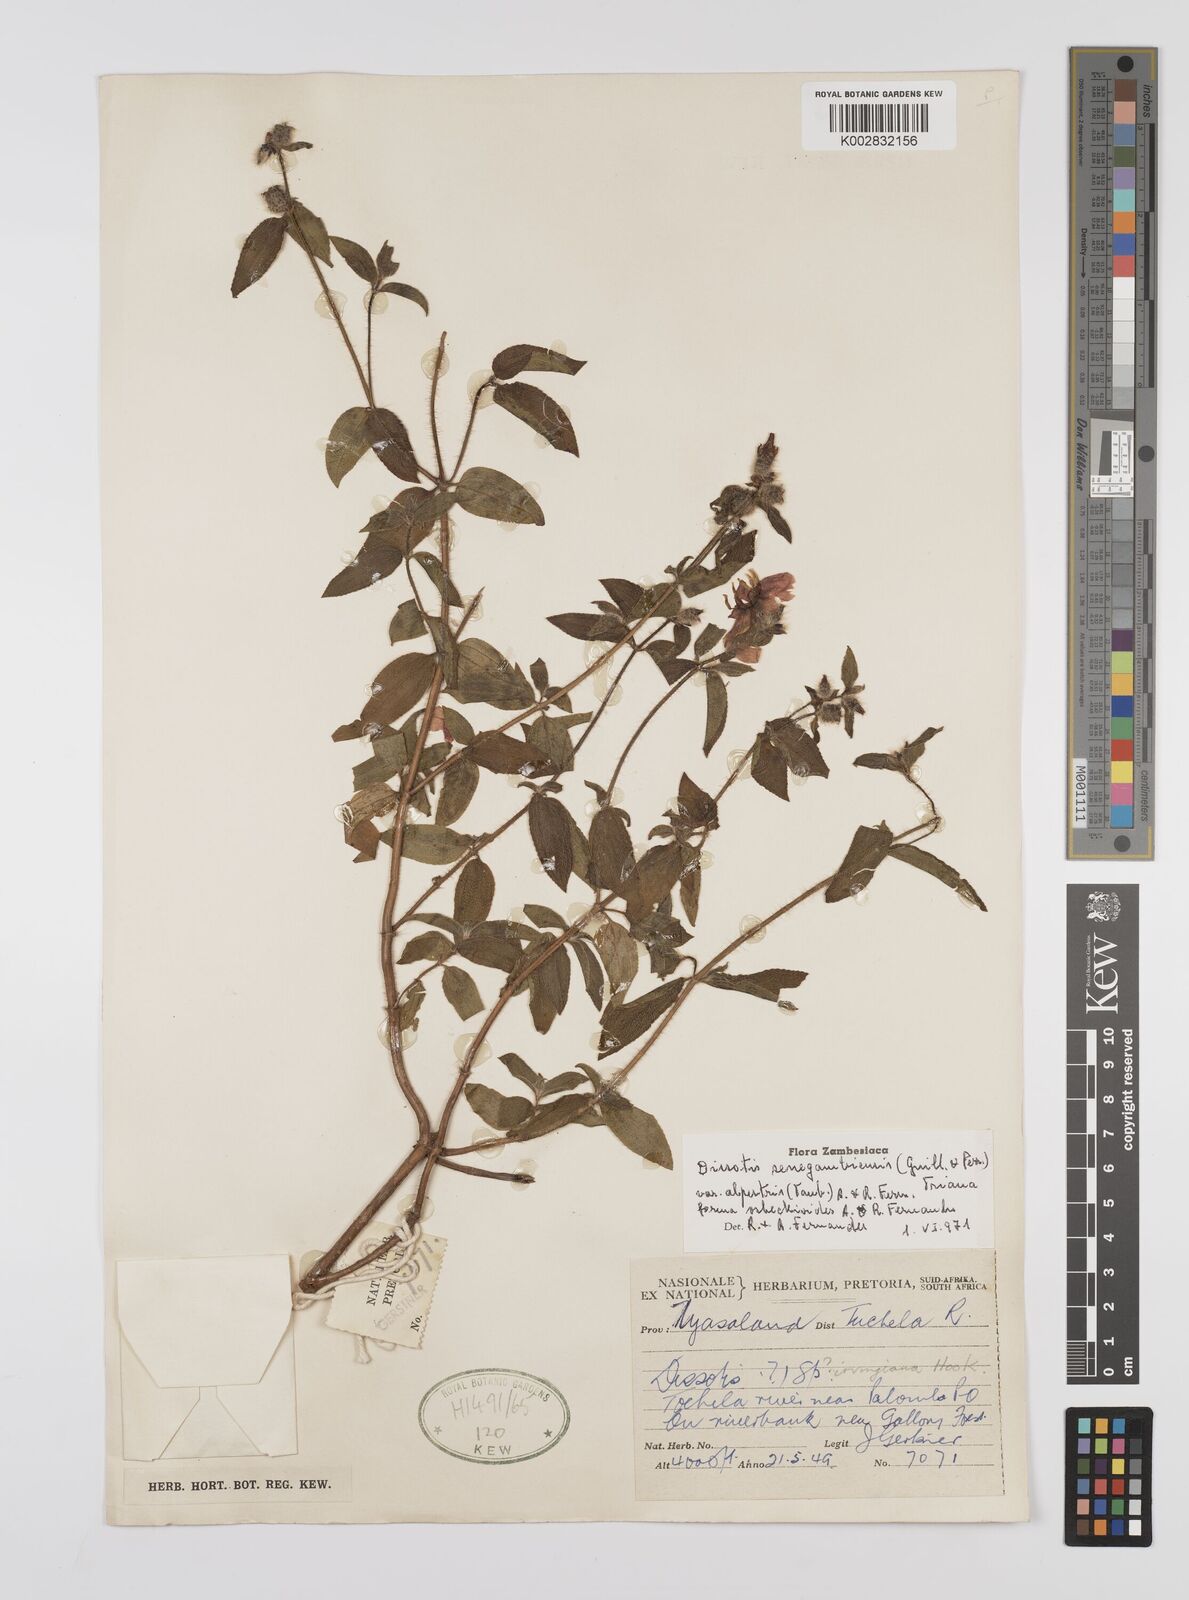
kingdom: Plantae
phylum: Tracheophyta
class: Magnoliopsida
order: Myrtales
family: Melastomataceae
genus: Nerophila
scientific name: Nerophila senegambiensis
